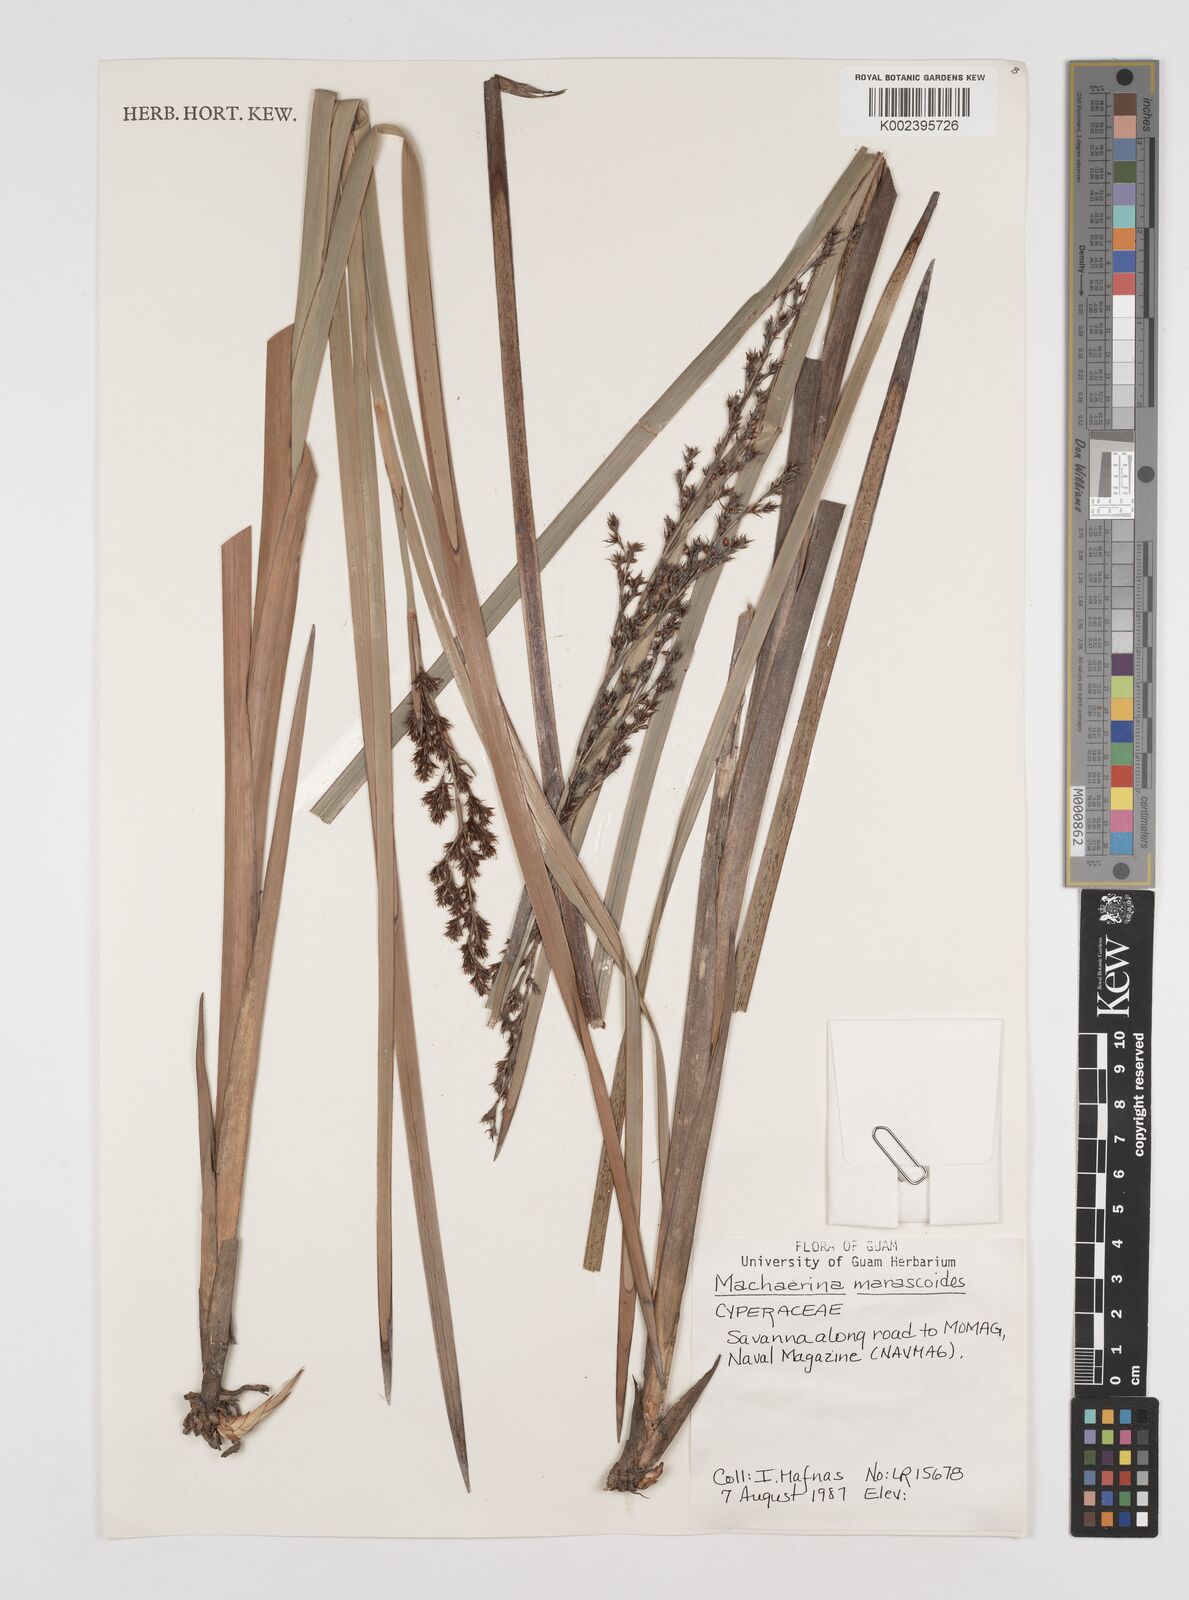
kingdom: Plantae
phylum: Tracheophyta
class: Liliopsida
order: Poales
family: Cyperaceae
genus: Machaerina
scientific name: Machaerina mariscoides
